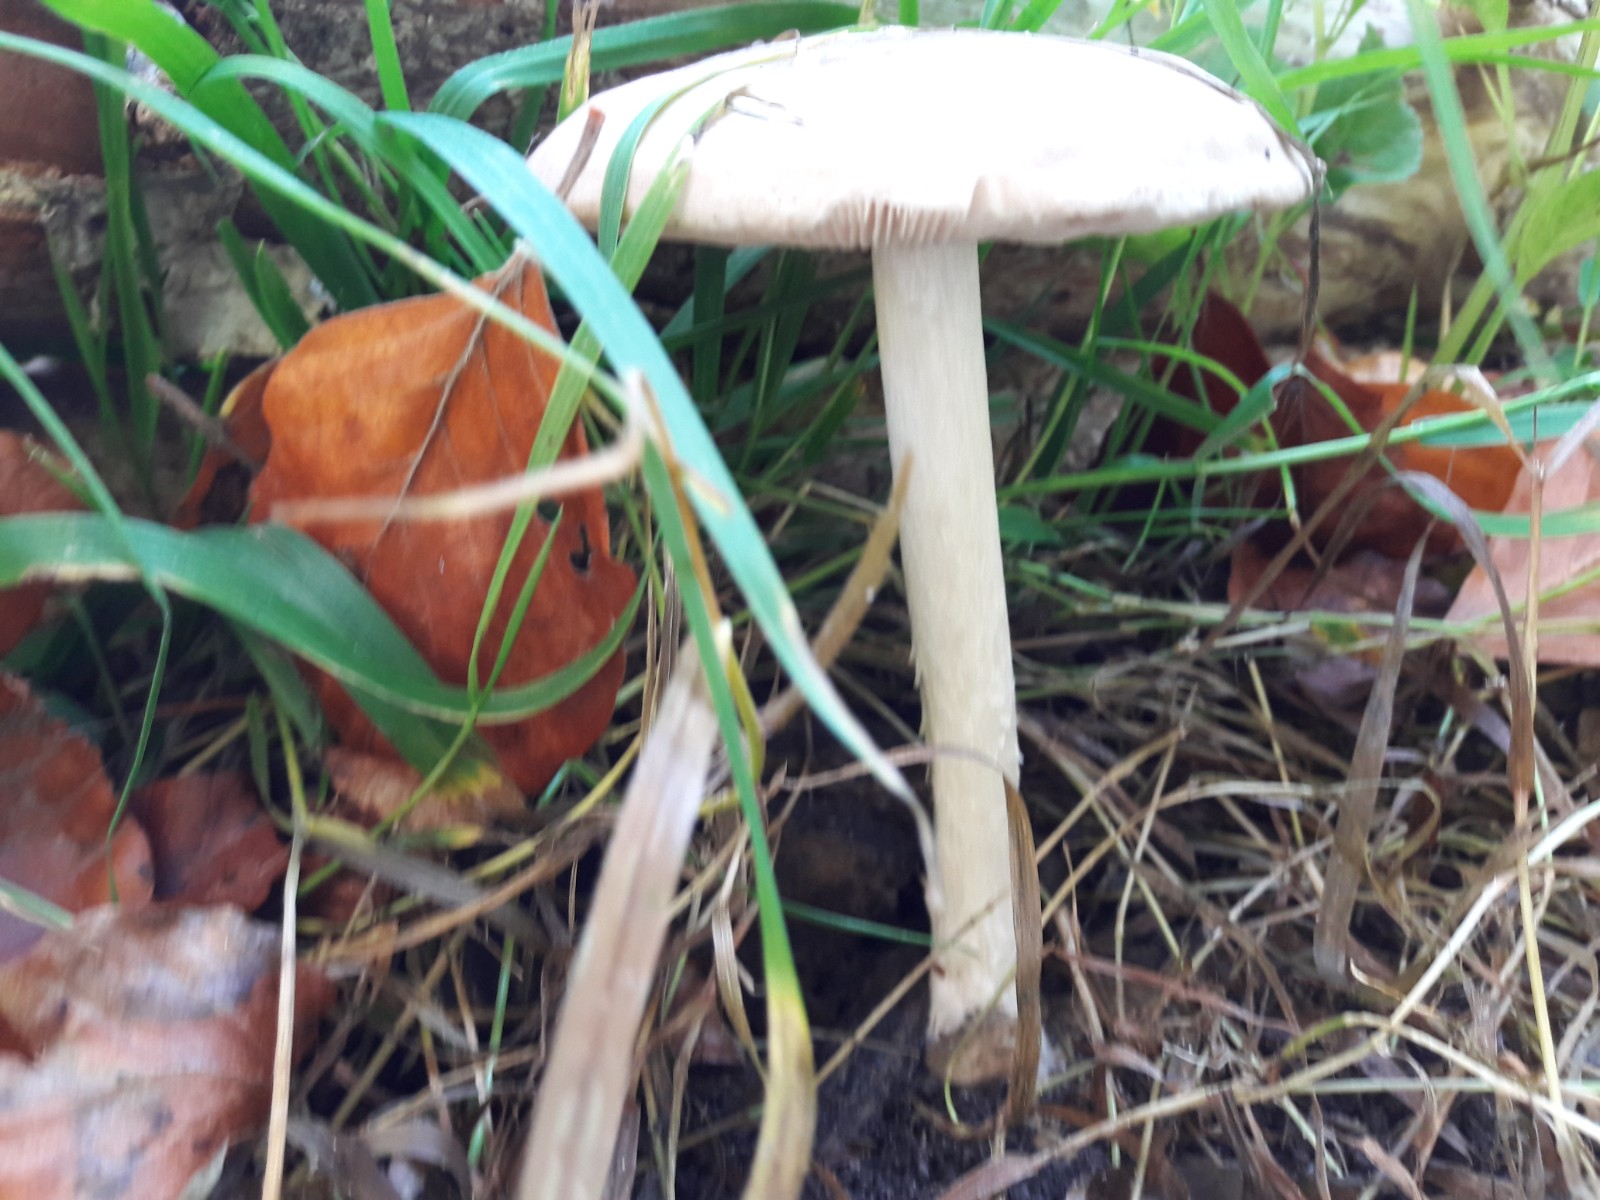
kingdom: Fungi
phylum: Basidiomycota
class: Agaricomycetes
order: Agaricales
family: Pluteaceae
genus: Pluteus
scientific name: Pluteus cervinus
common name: sodfarvet skærmhat
